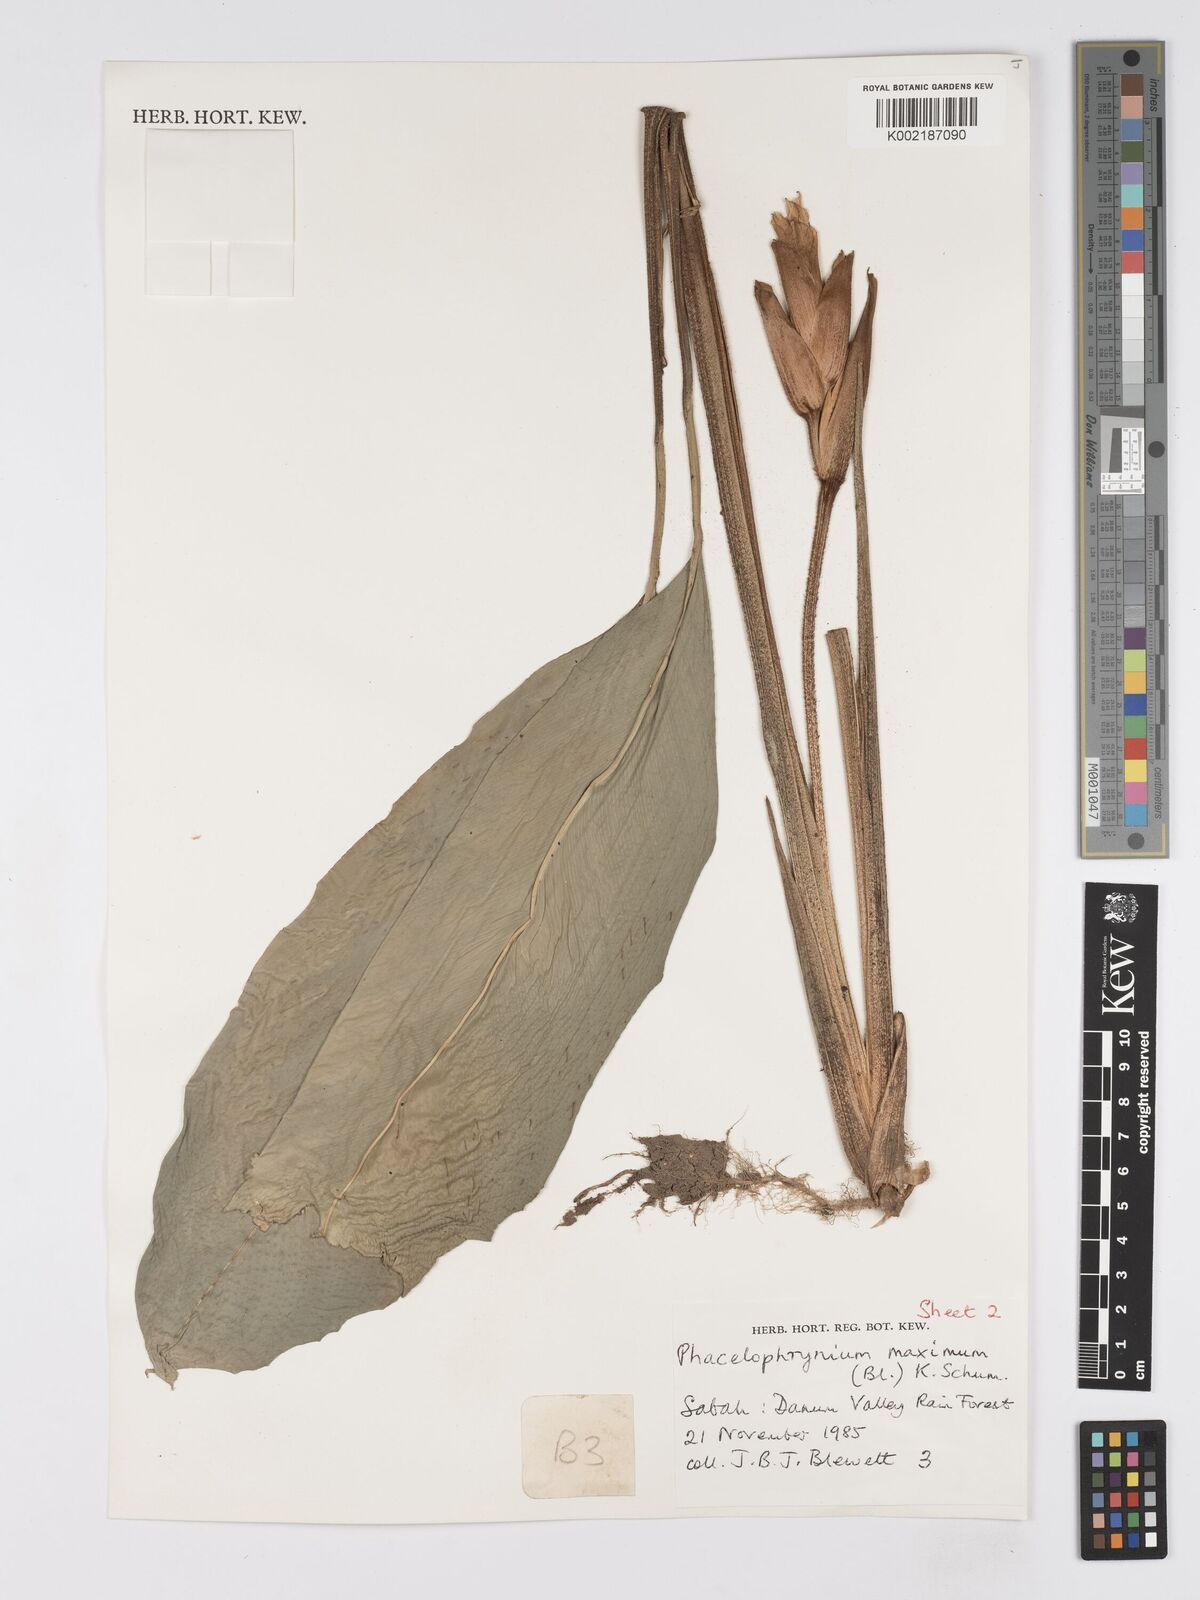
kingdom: Plantae
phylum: Tracheophyta
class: Liliopsida
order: Zingiberales
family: Marantaceae
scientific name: Marantaceae
